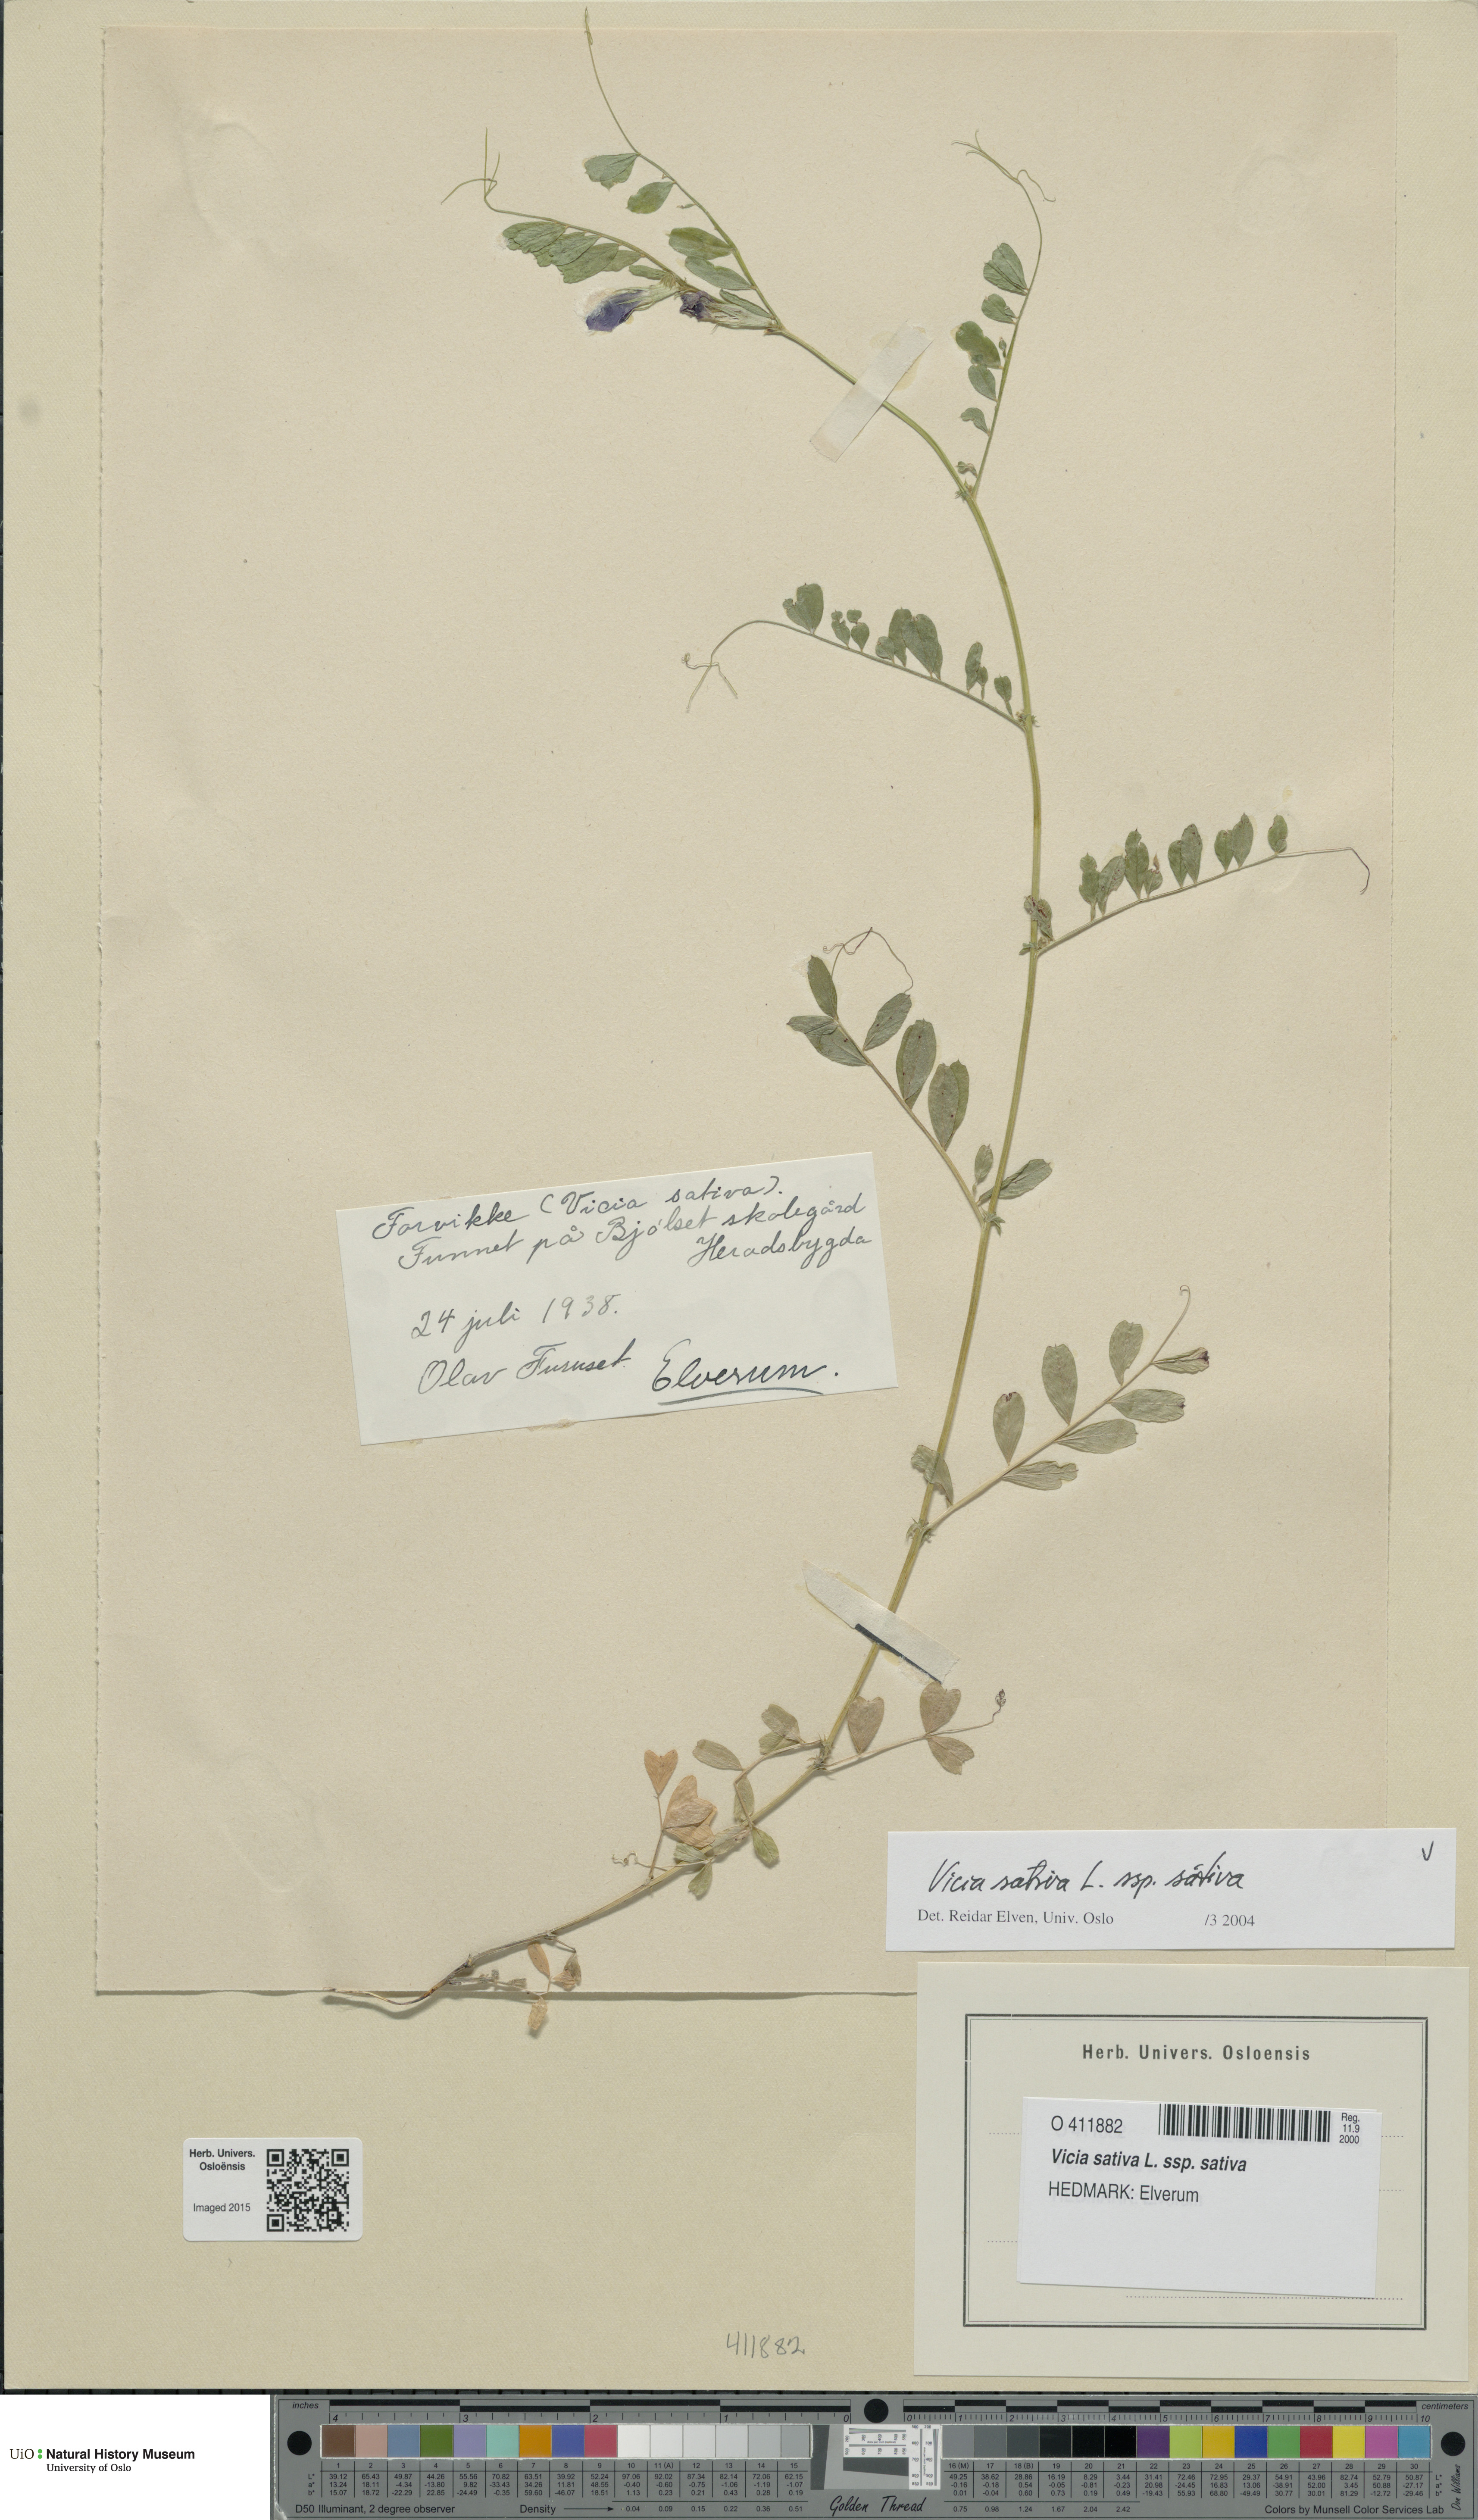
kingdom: Plantae
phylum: Tracheophyta
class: Magnoliopsida
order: Fabales
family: Fabaceae
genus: Vicia
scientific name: Vicia sativa
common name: Garden vetch
